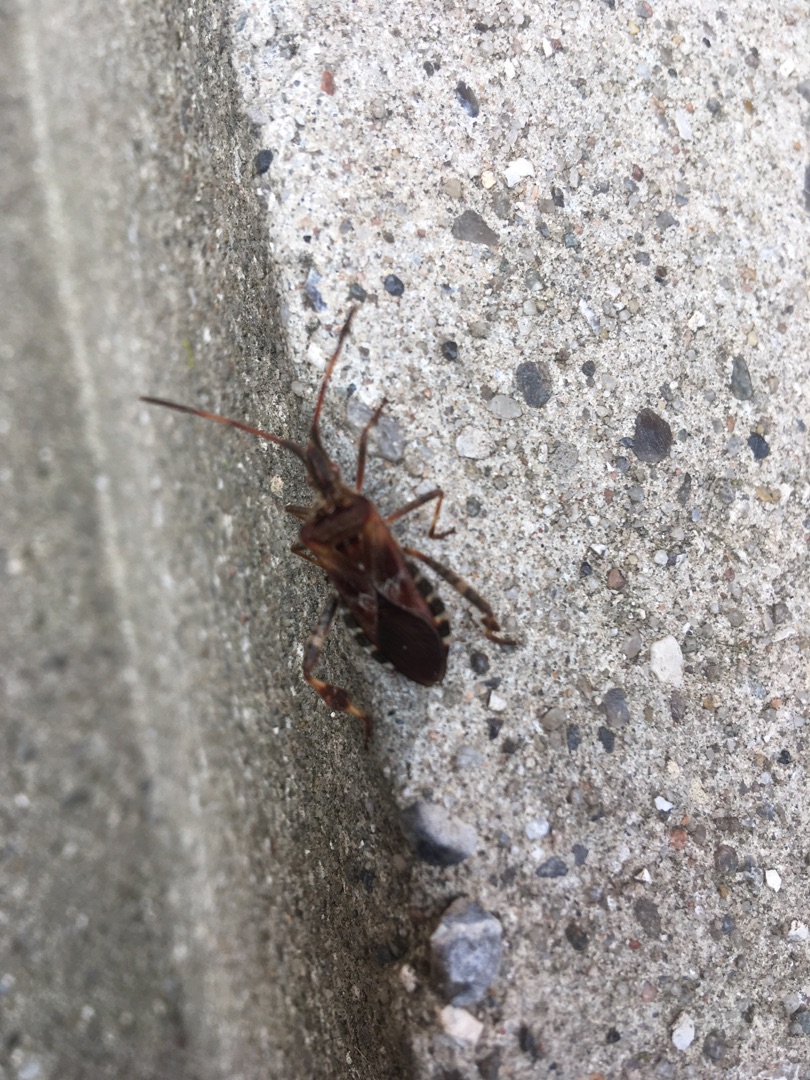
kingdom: Animalia
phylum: Arthropoda
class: Insecta
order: Hemiptera
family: Coreidae
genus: Leptoglossus
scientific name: Leptoglossus occidentalis
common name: Amerikansk fyrretæge
